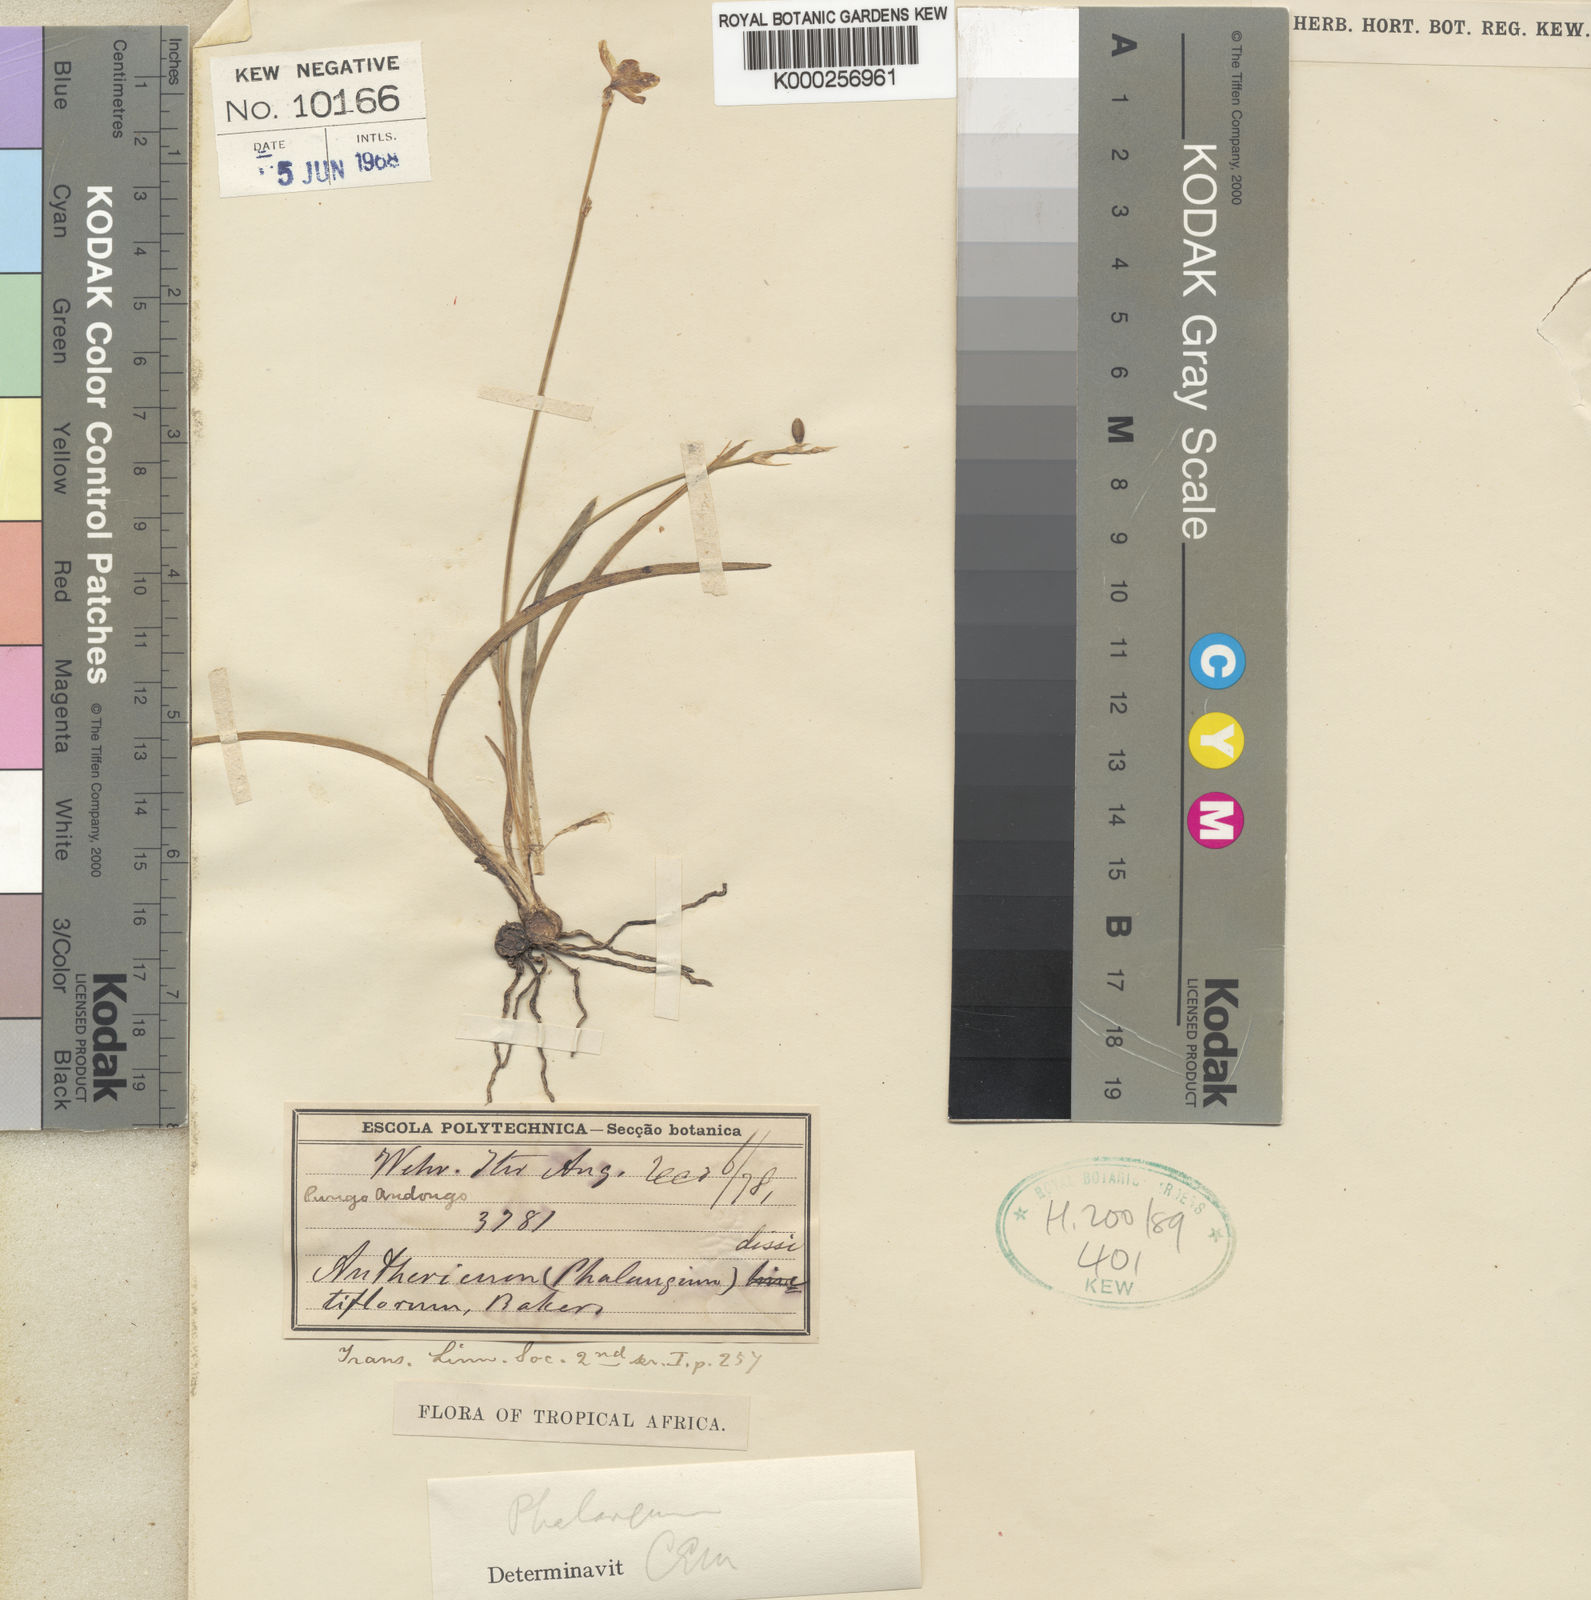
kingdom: Plantae
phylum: Tracheophyta
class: Liliopsida
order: Asparagales
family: Asparagaceae
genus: Chlorophytum
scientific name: Chlorophytum
